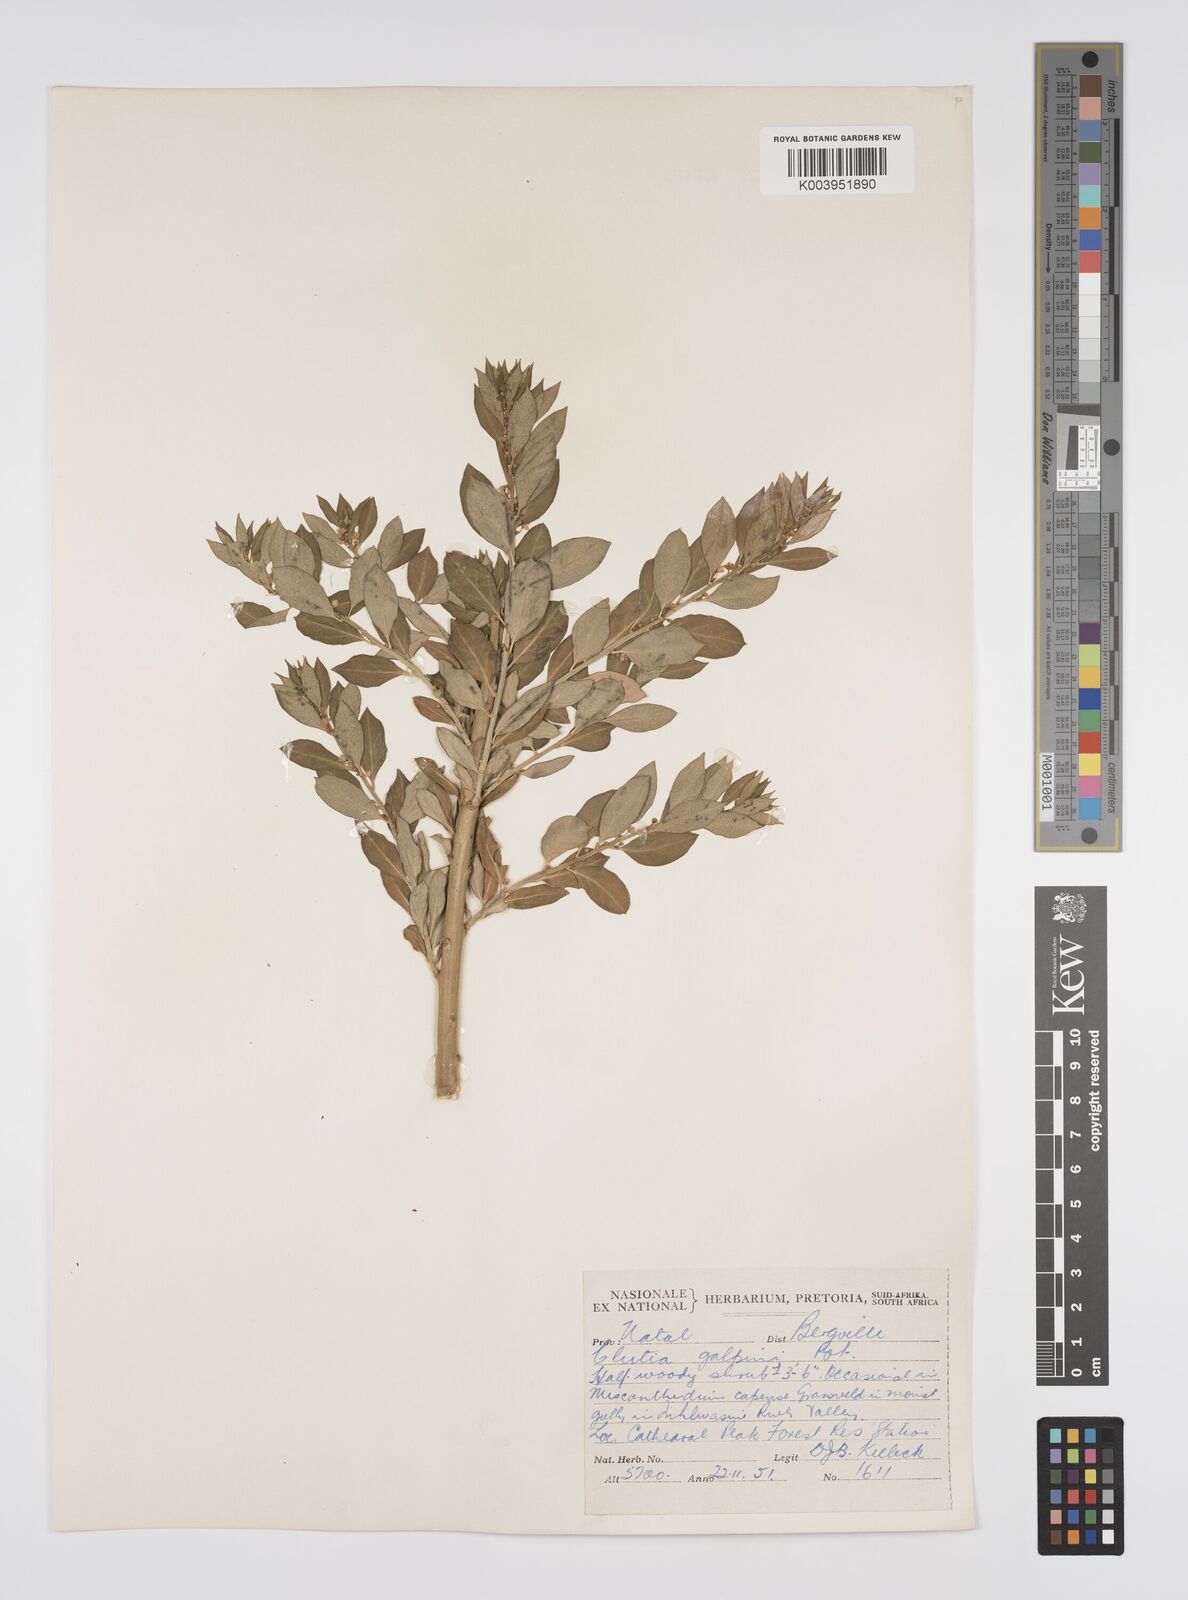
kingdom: Plantae
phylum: Tracheophyta
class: Magnoliopsida
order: Malpighiales
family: Peraceae
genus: Clutia
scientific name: Clutia galpinii
